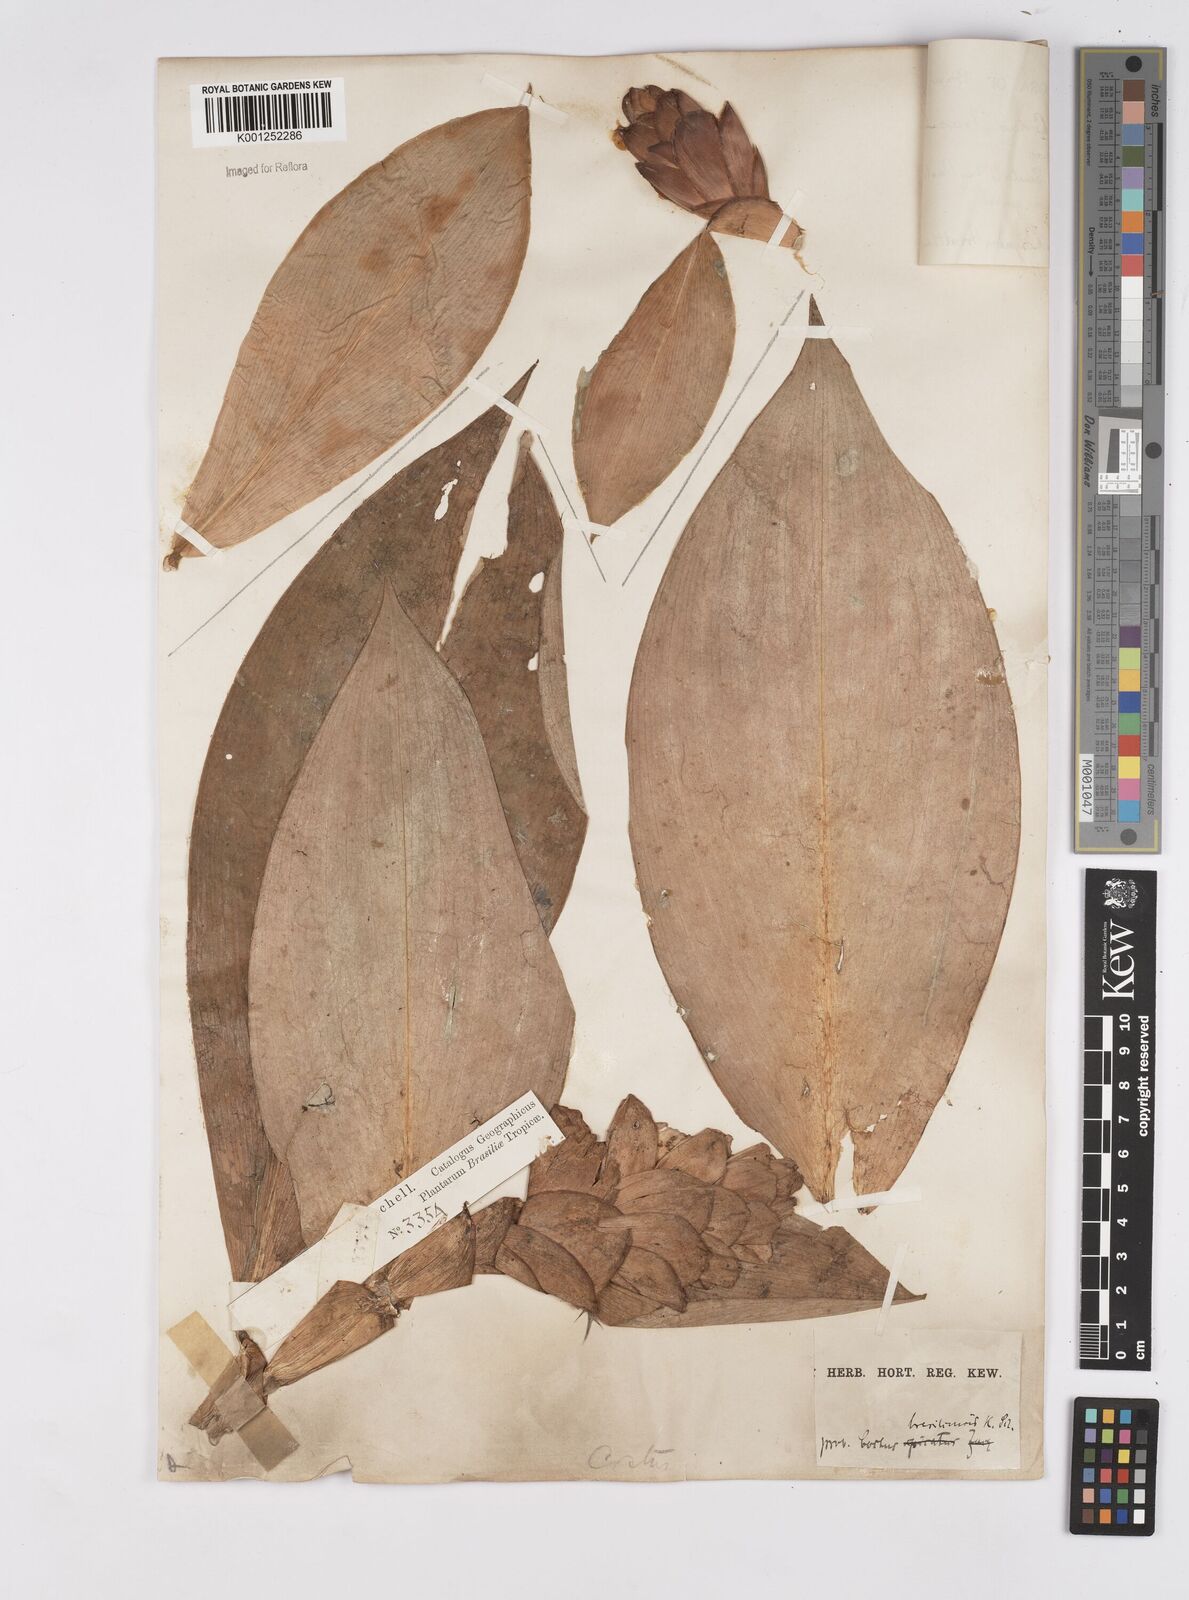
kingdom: Plantae
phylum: Tracheophyta
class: Liliopsida
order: Zingiberales
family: Costaceae
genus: Costus
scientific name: Costus spiralis
